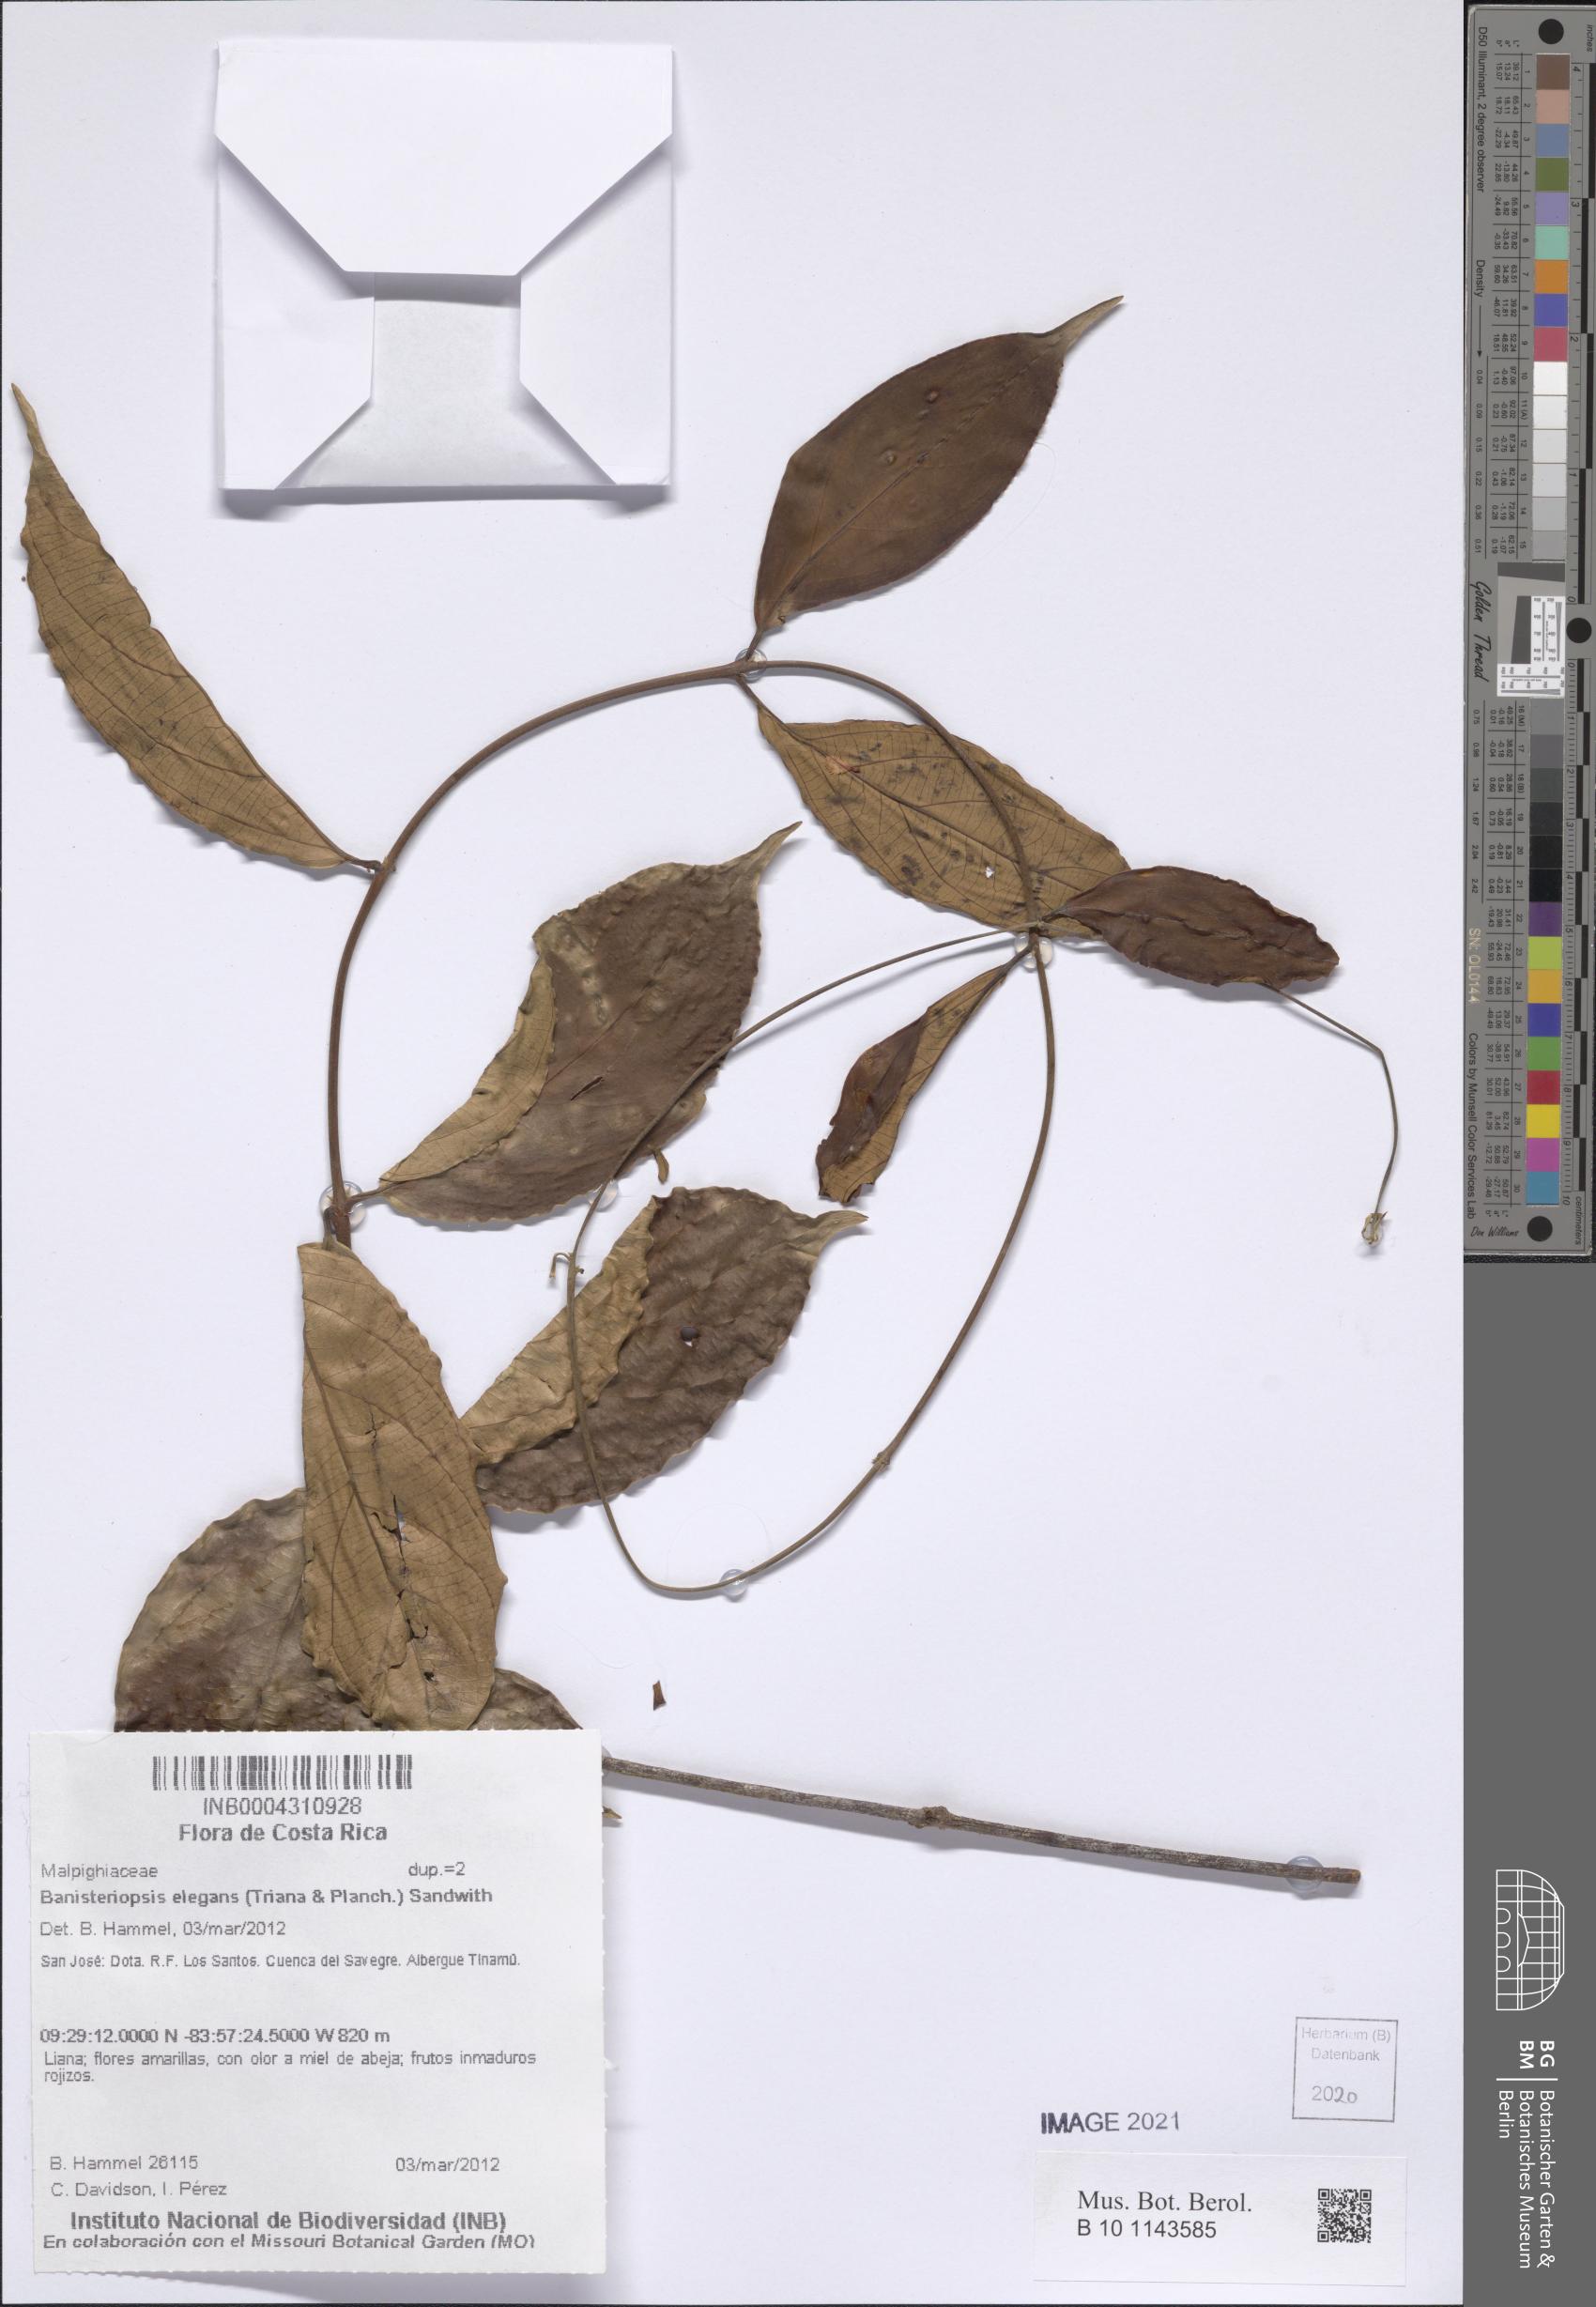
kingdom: Plantae
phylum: Tracheophyta
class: Magnoliopsida
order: Malpighiales
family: Malpighiaceae
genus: Banisteriopsis
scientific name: Banisteriopsis elegans
